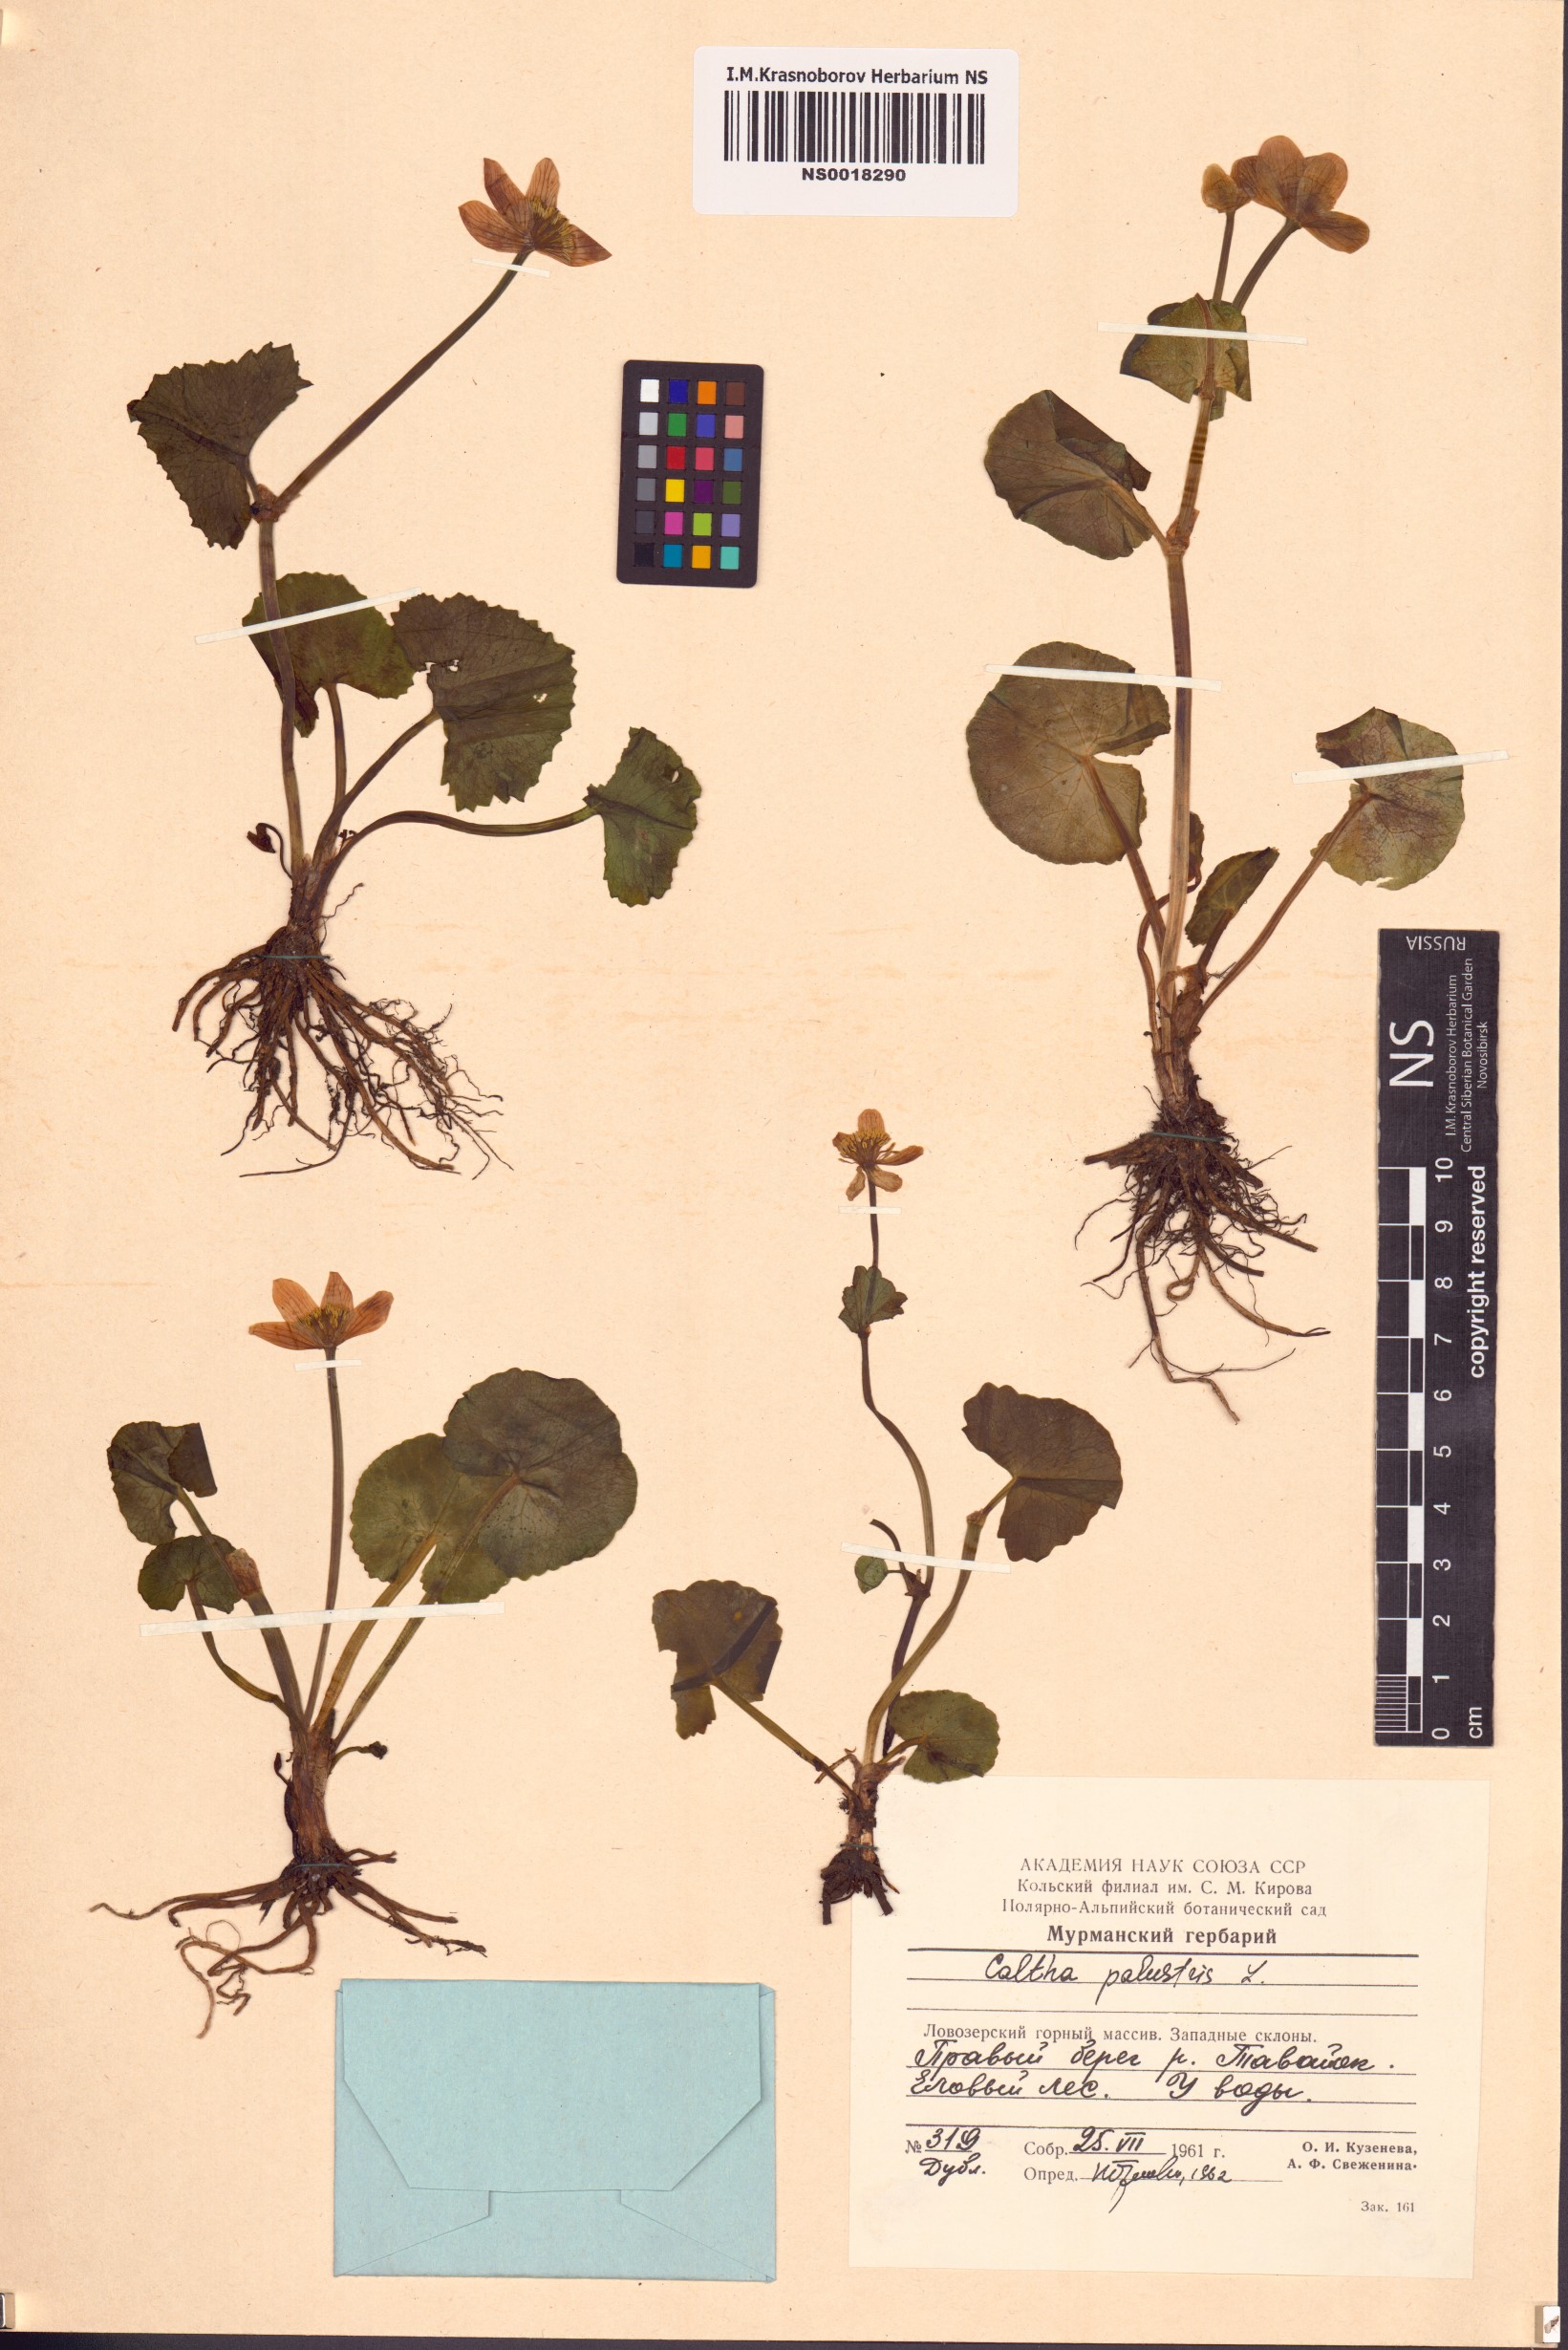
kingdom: Plantae
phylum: Tracheophyta
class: Magnoliopsida
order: Ranunculales
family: Ranunculaceae
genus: Caltha
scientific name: Caltha palustris
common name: Marsh marigold
